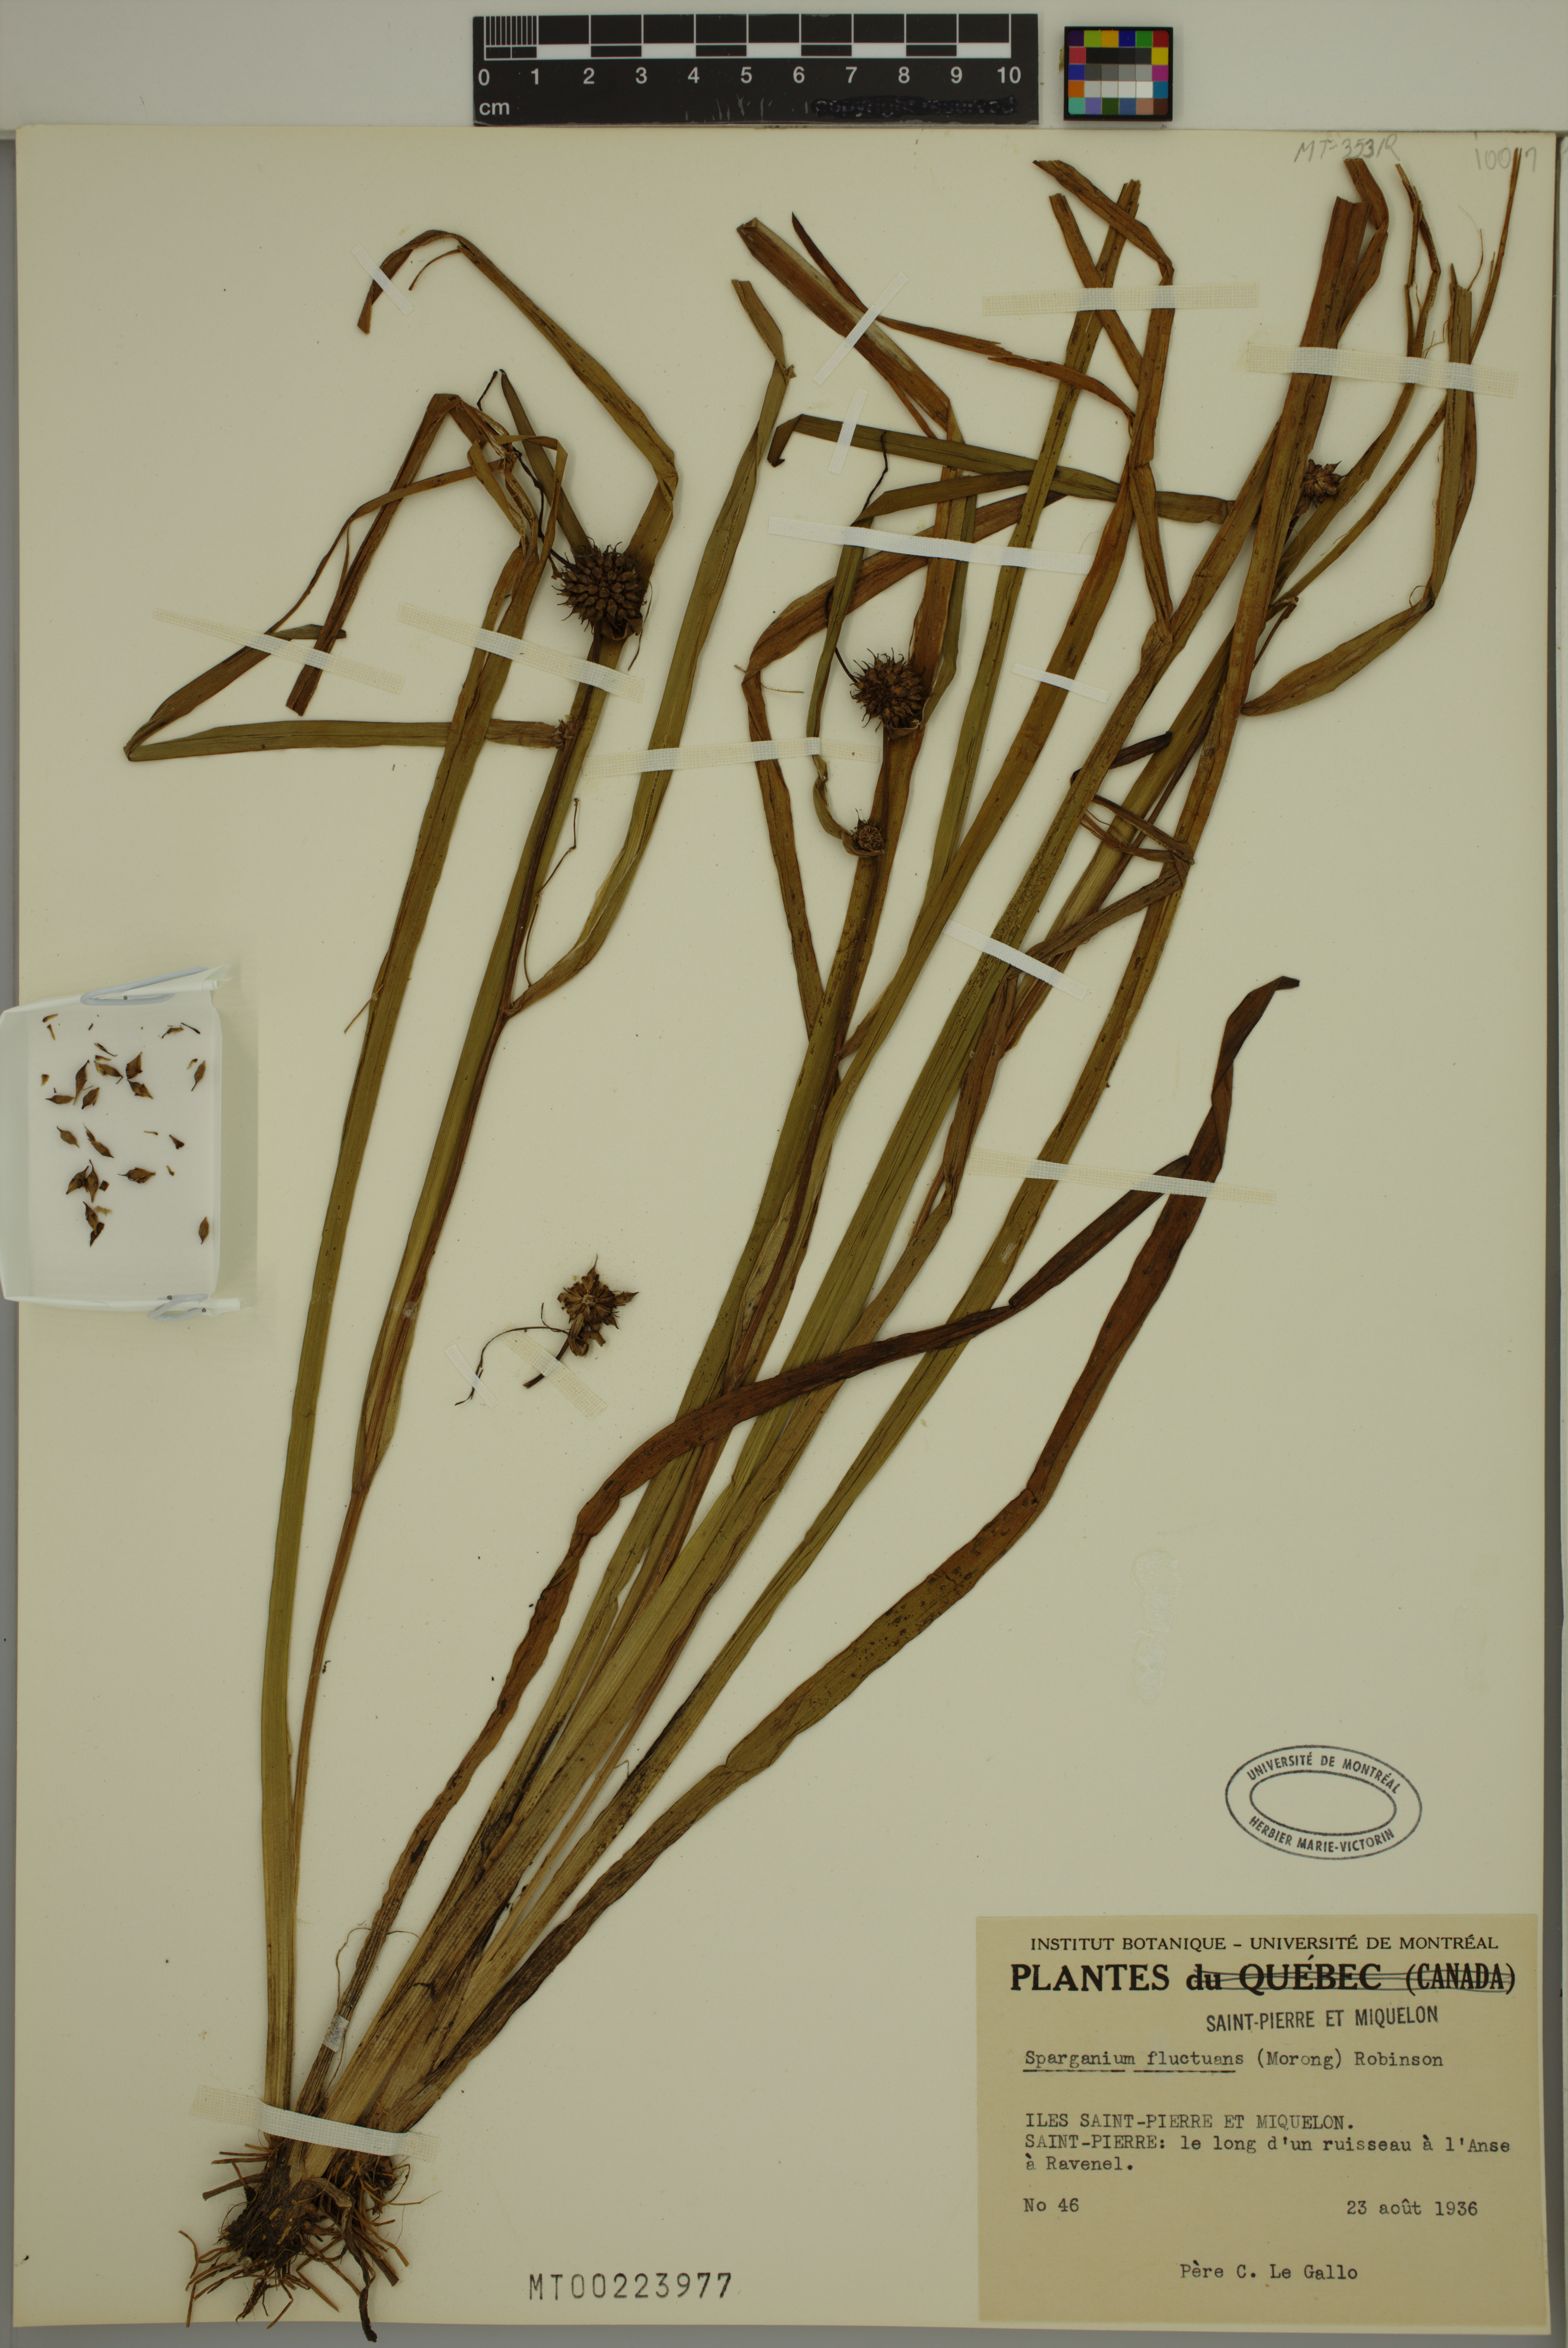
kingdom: Plantae
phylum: Tracheophyta
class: Liliopsida
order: Poales
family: Typhaceae
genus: Sparganium
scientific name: Sparganium fluctuans
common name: Floating burreed
